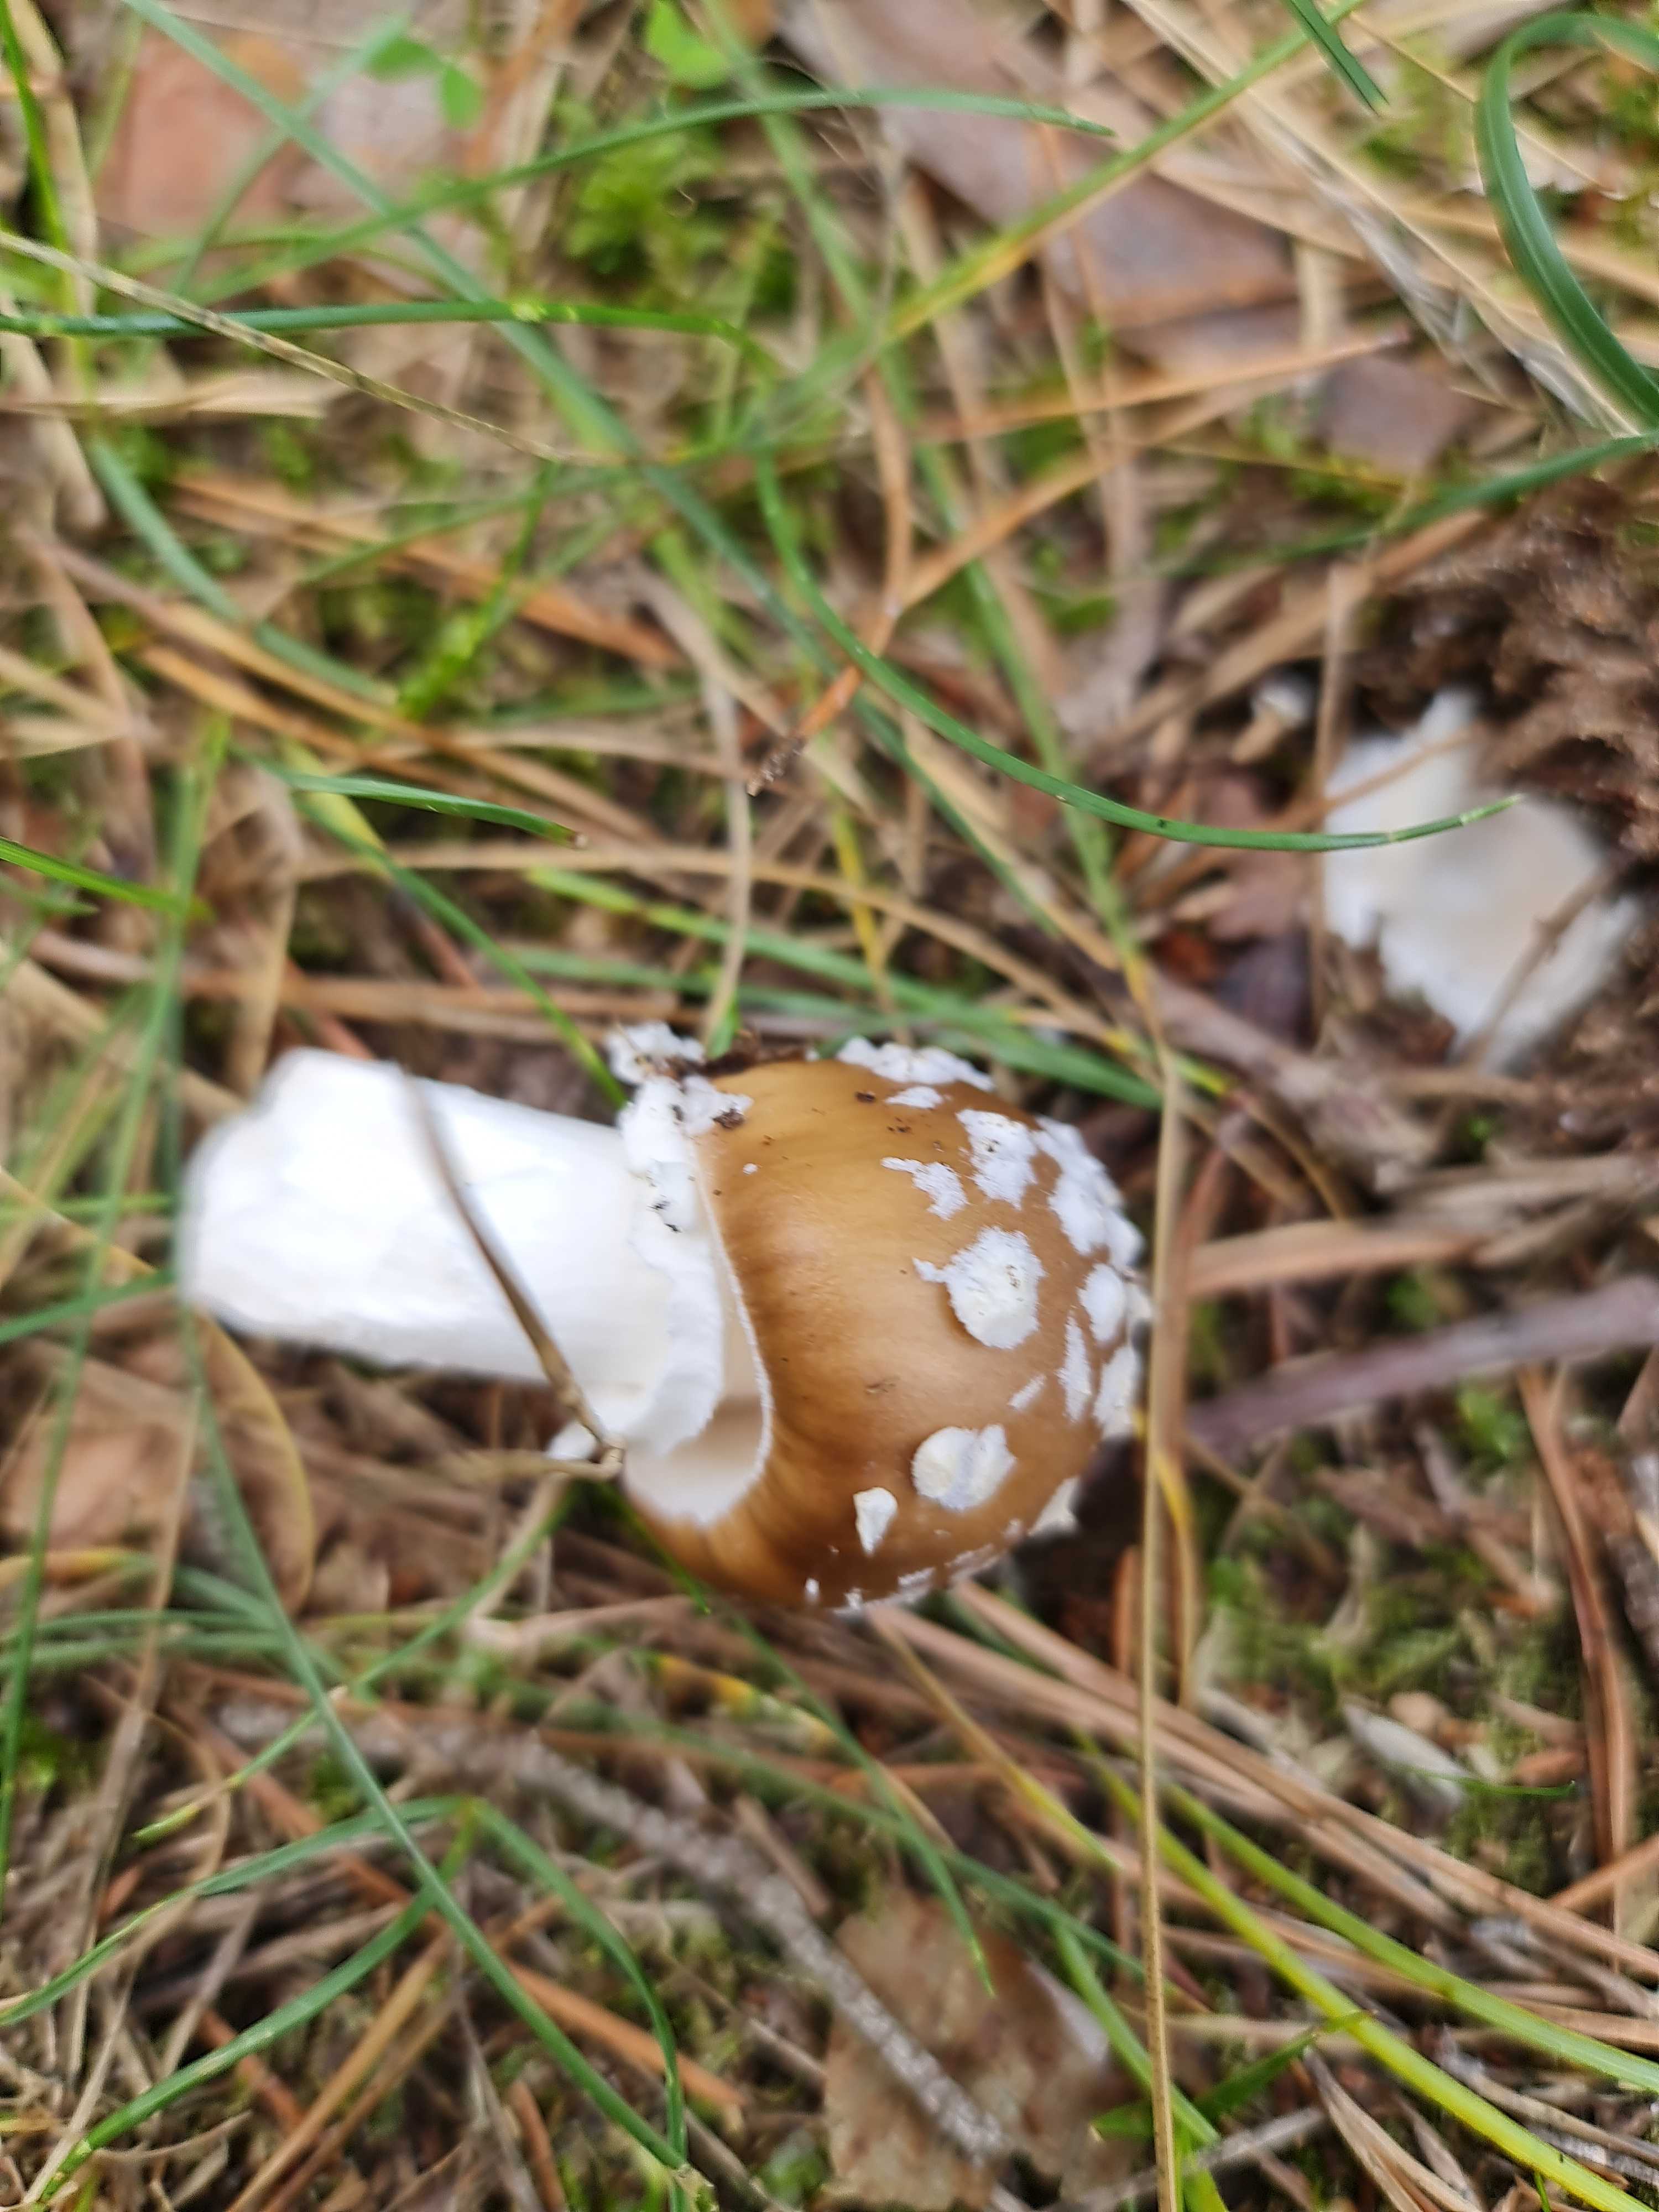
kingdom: Fungi
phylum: Basidiomycota
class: Agaricomycetes
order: Agaricales
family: Amanitaceae
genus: Amanita
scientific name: Amanita
